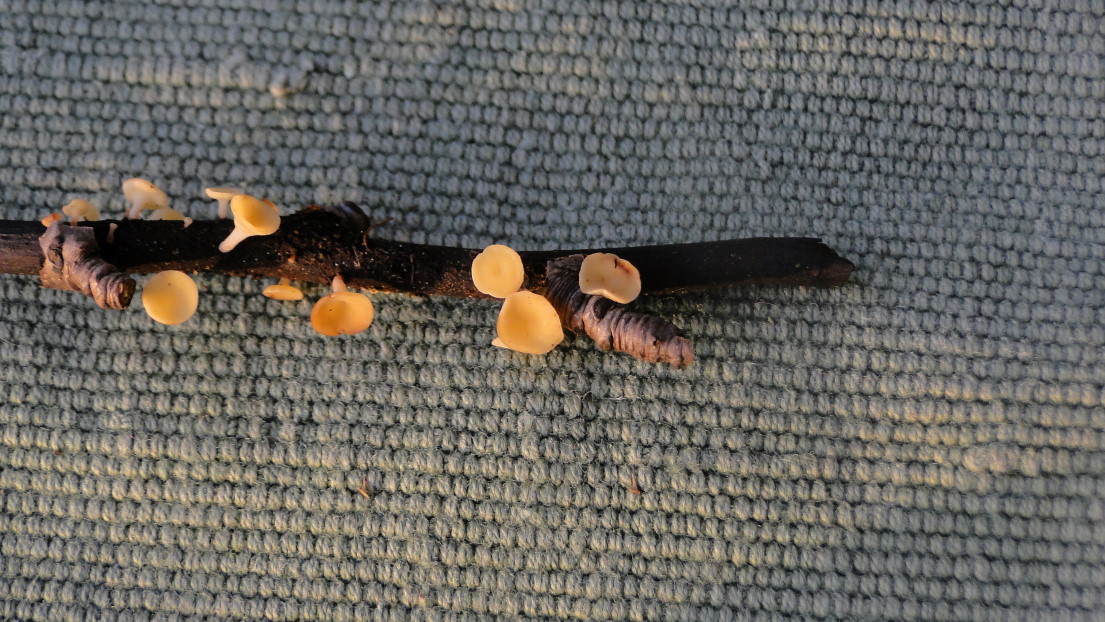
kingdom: Fungi
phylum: Ascomycota
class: Leotiomycetes
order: Helotiales
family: Helotiaceae
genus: Hymenoscyphus
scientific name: Hymenoscyphus serotinus
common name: krumsporet stilkskive
